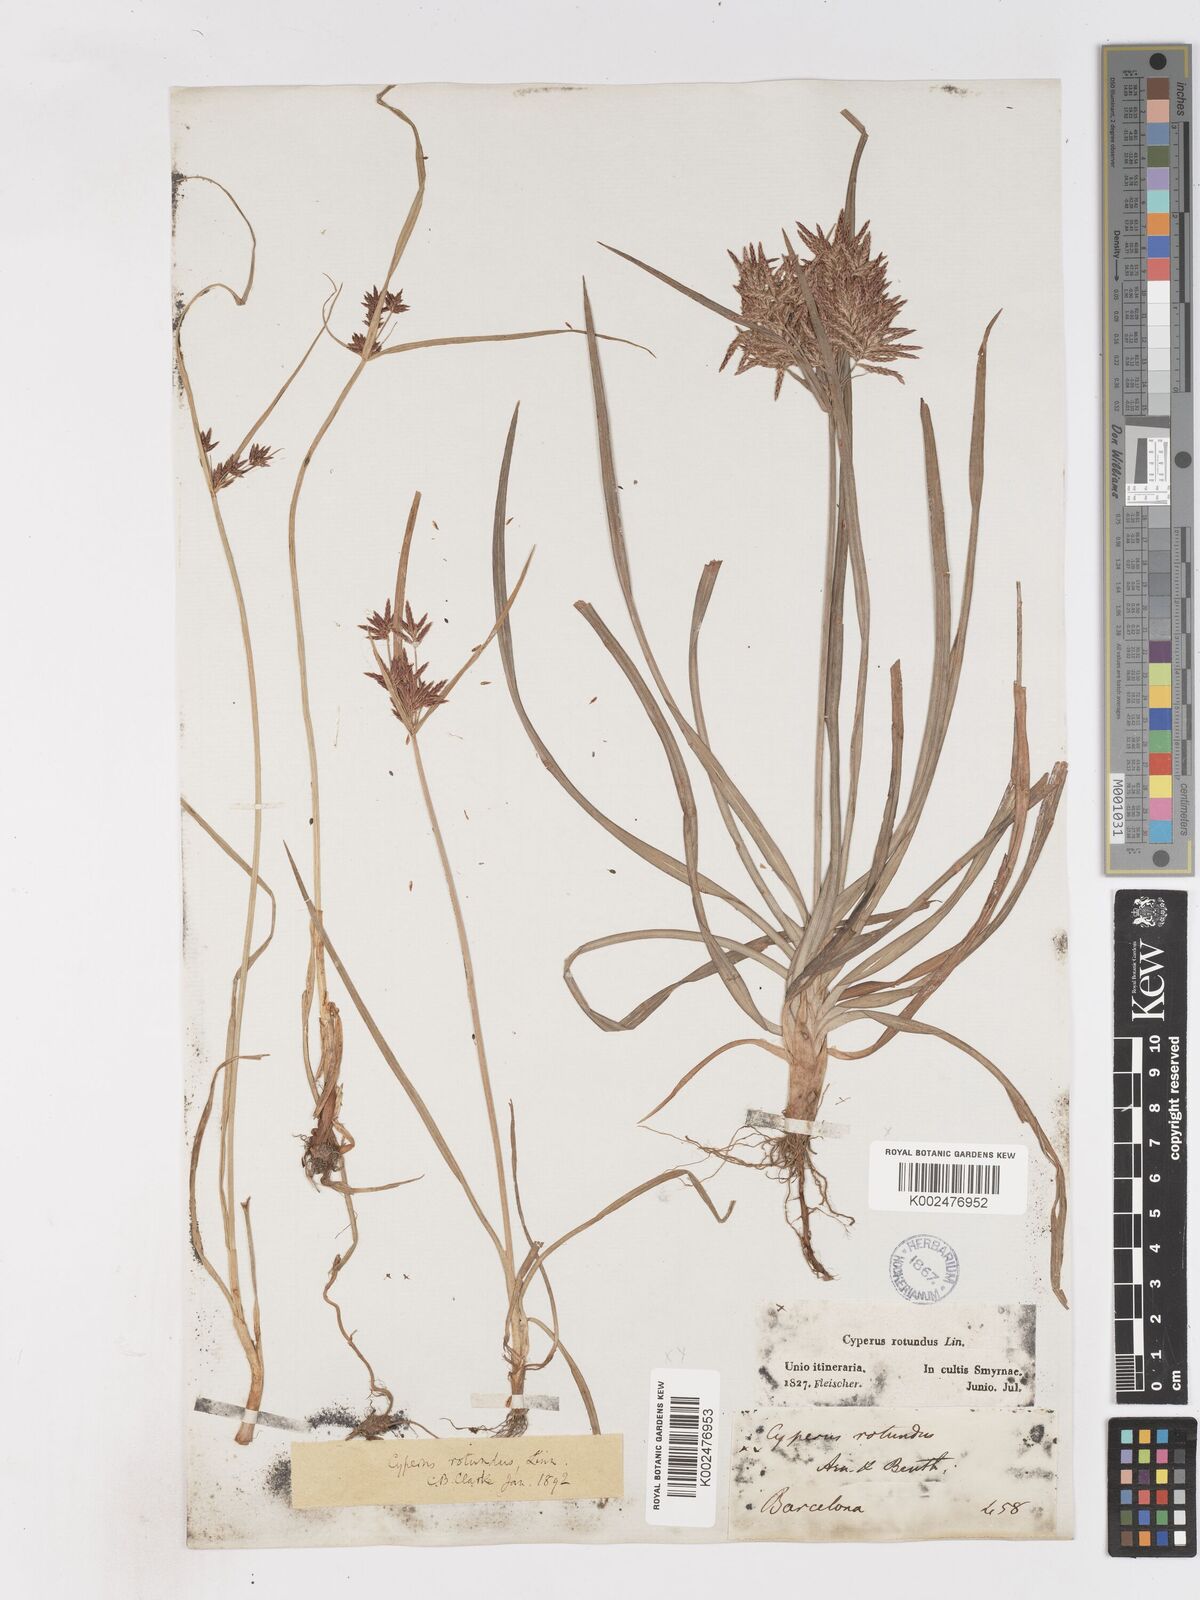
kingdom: Plantae
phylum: Tracheophyta
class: Liliopsida
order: Poales
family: Cyperaceae
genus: Cyperus
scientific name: Cyperus rotundus
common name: Nutgrass
